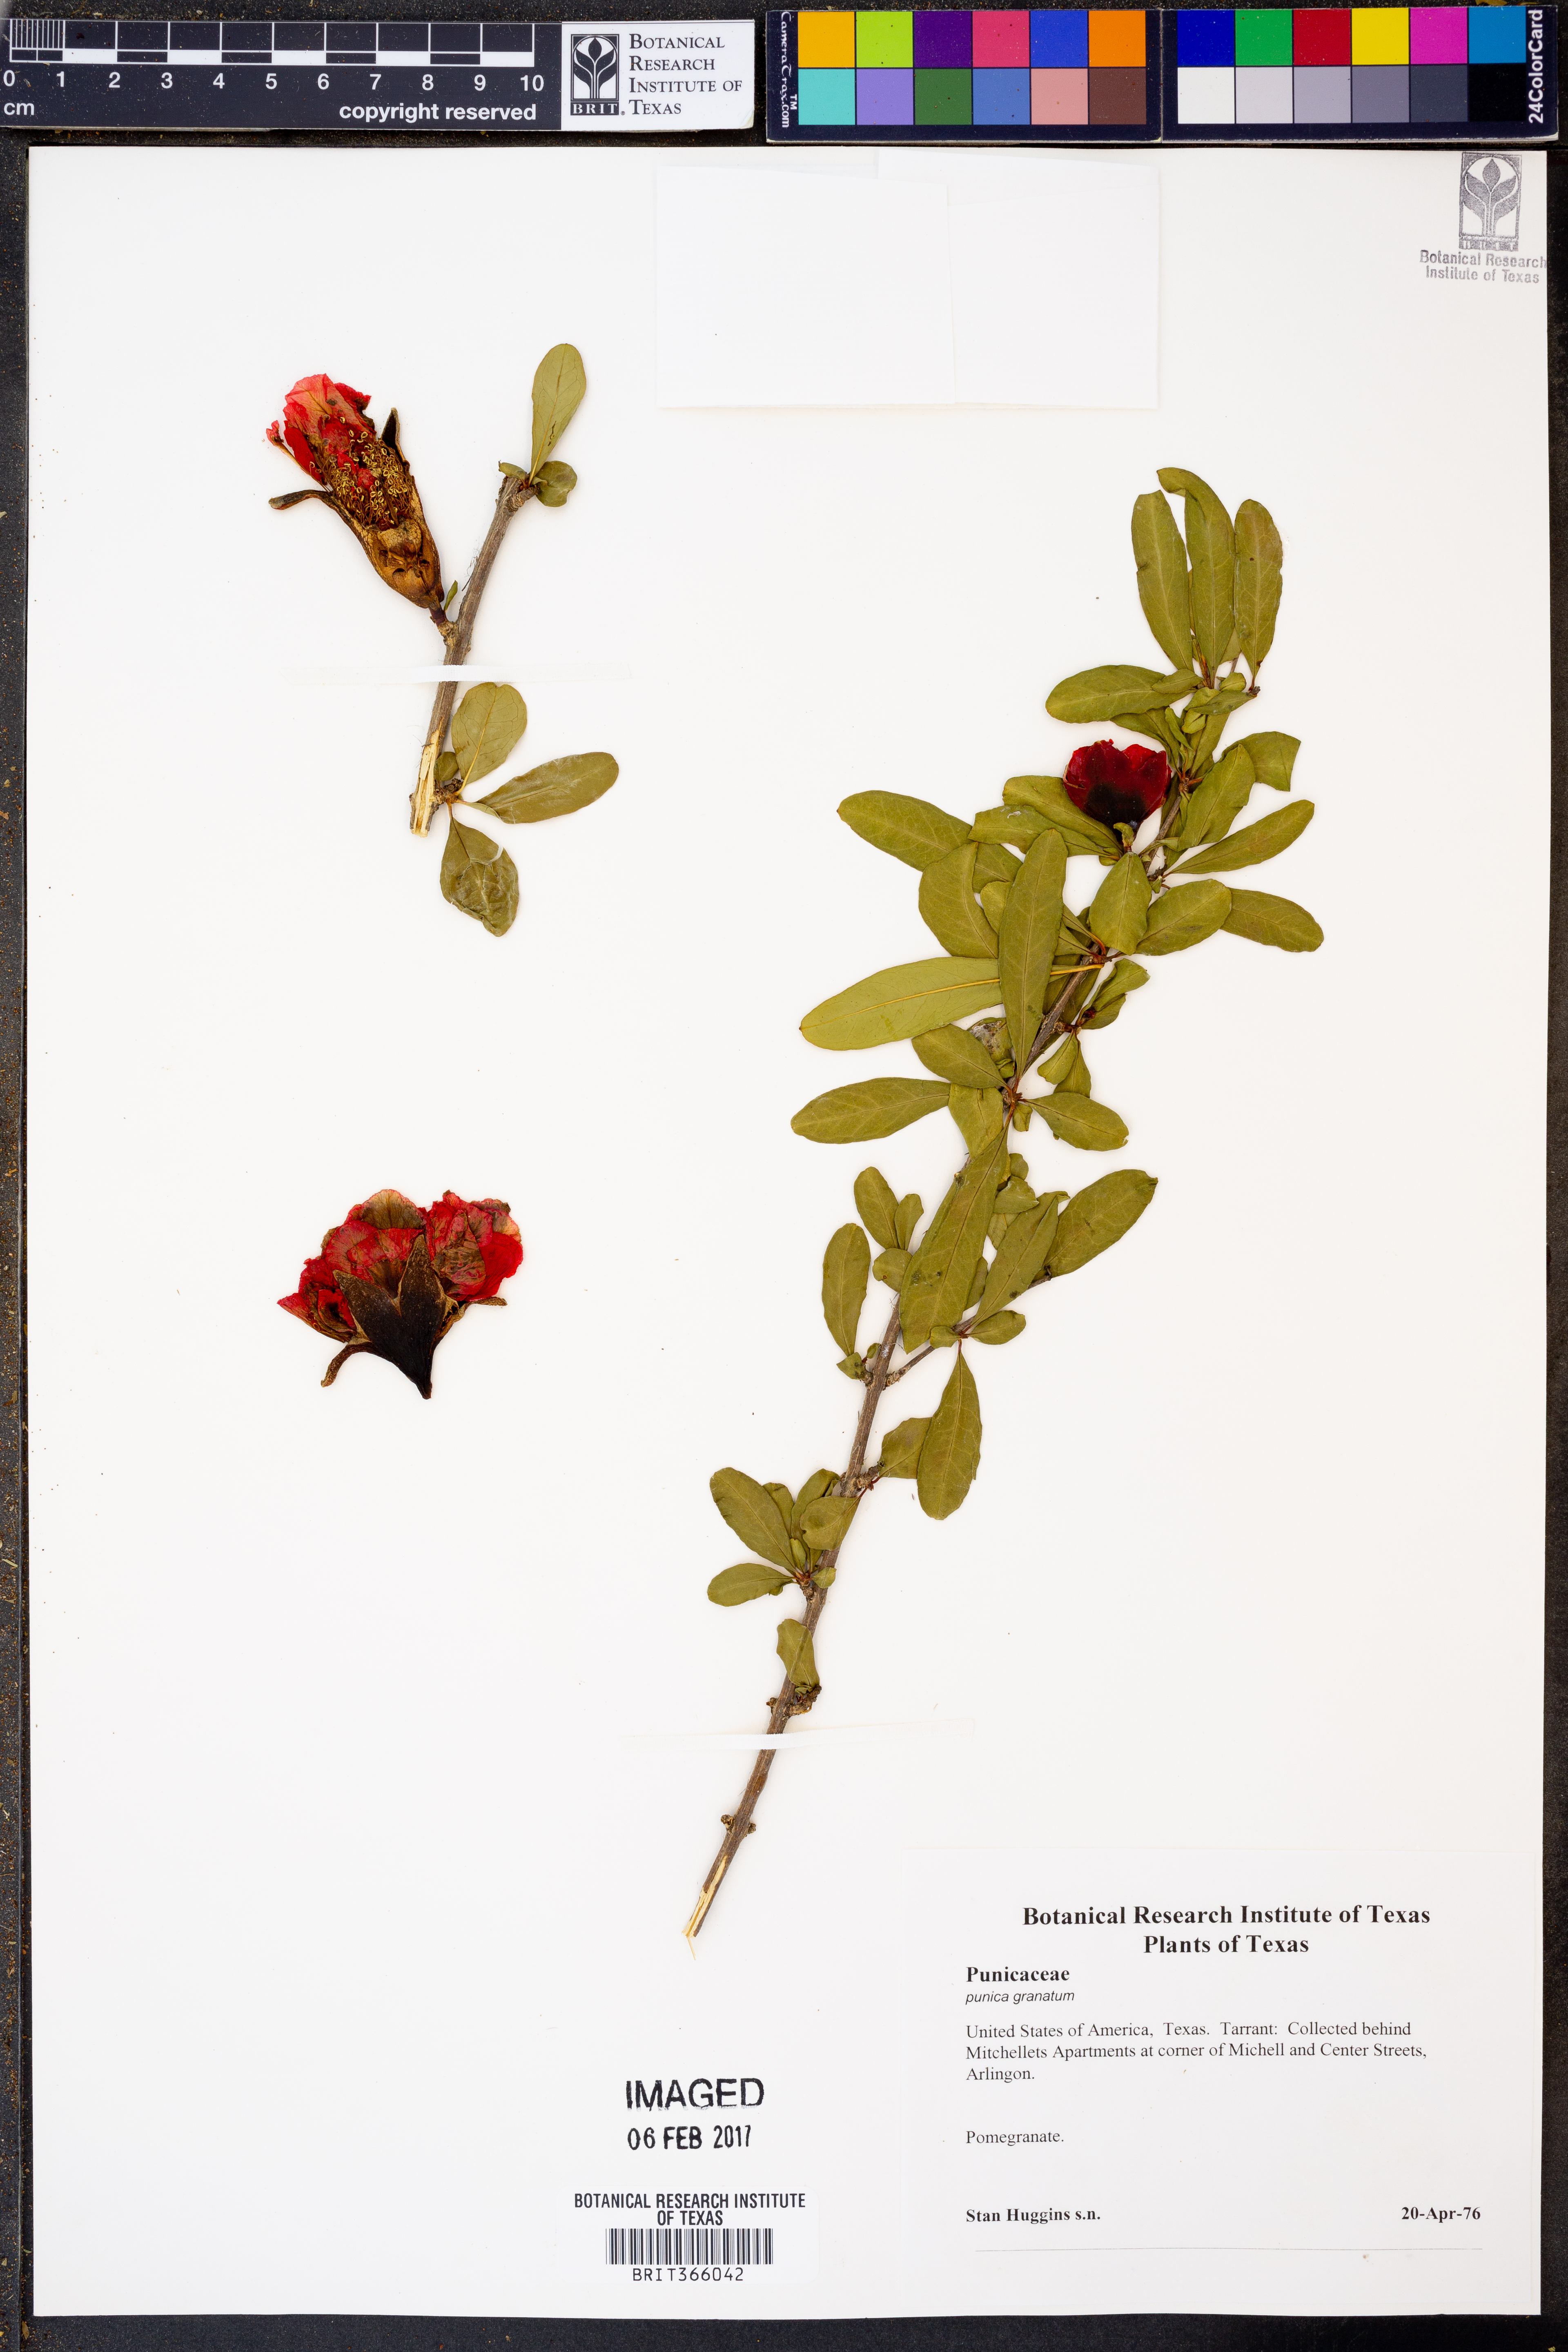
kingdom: Plantae
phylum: Tracheophyta
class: Magnoliopsida
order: Myrtales
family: Lythraceae
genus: Punica
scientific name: Punica granatum
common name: Pomegranate
